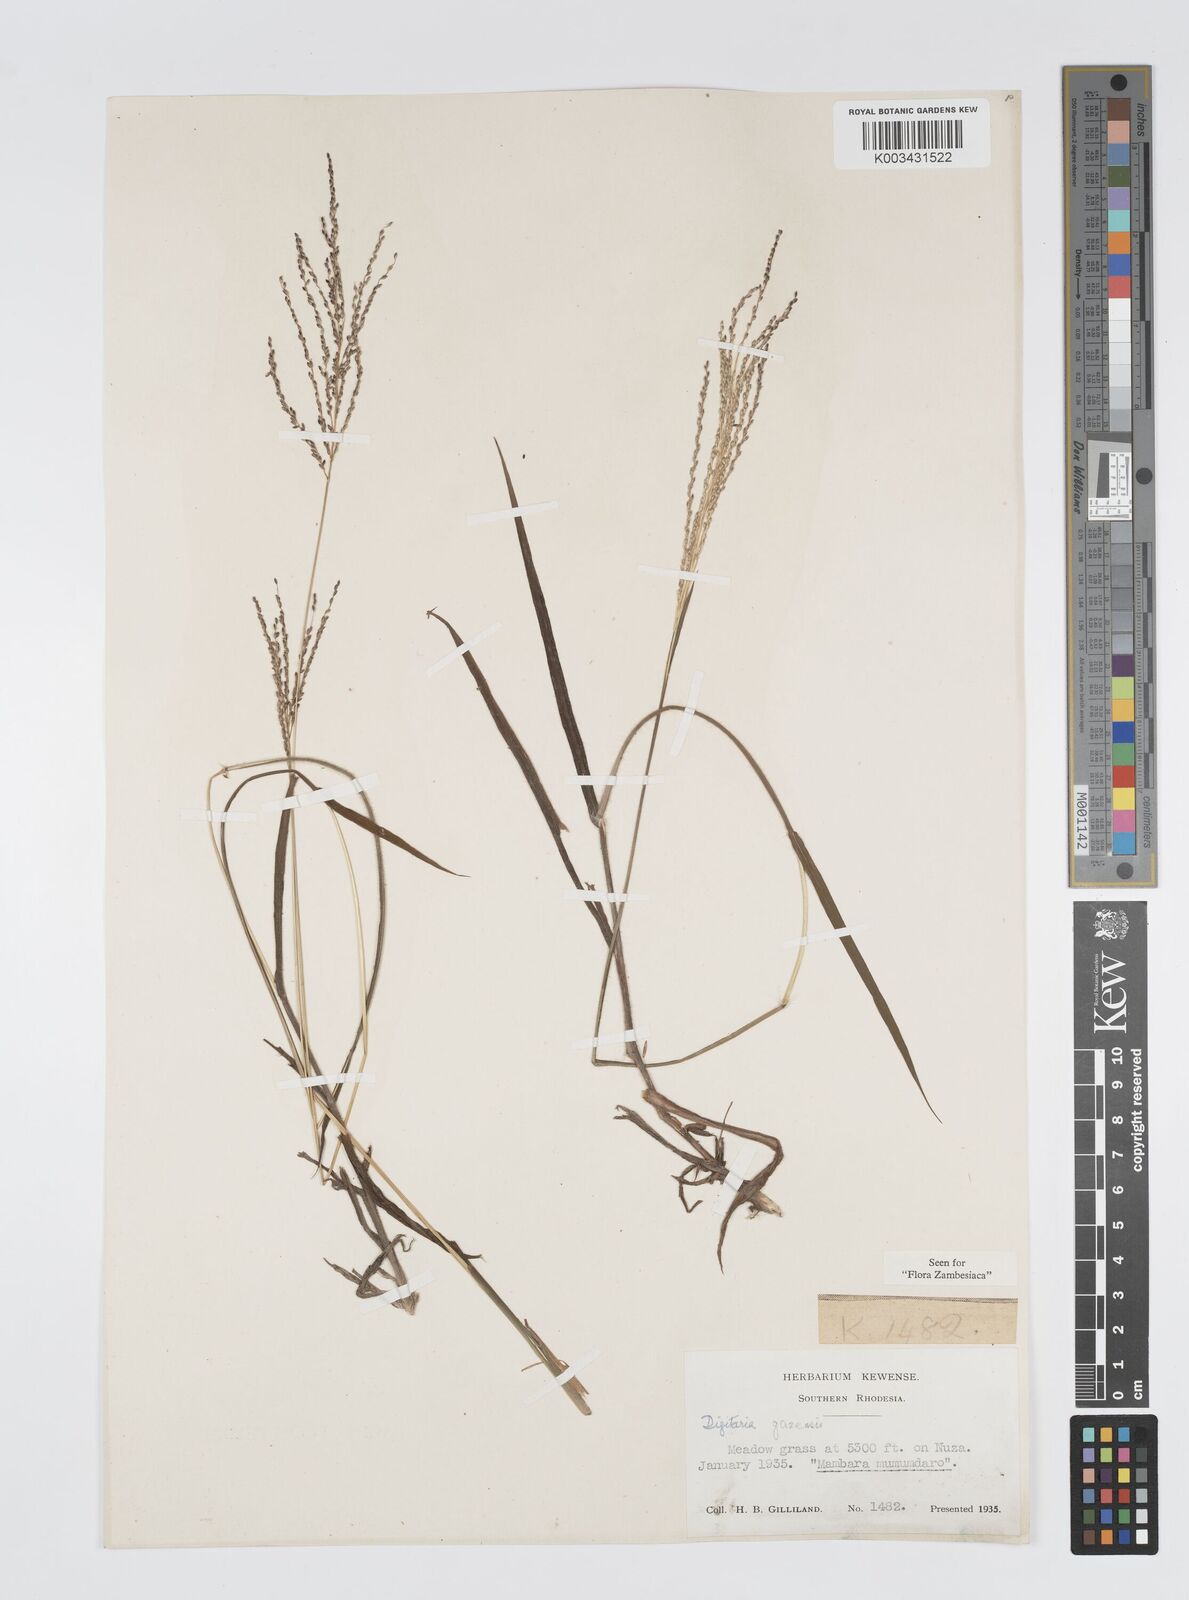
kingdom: Plantae
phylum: Tracheophyta
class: Liliopsida
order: Poales
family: Poaceae
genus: Digitaria
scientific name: Digitaria gazensis
